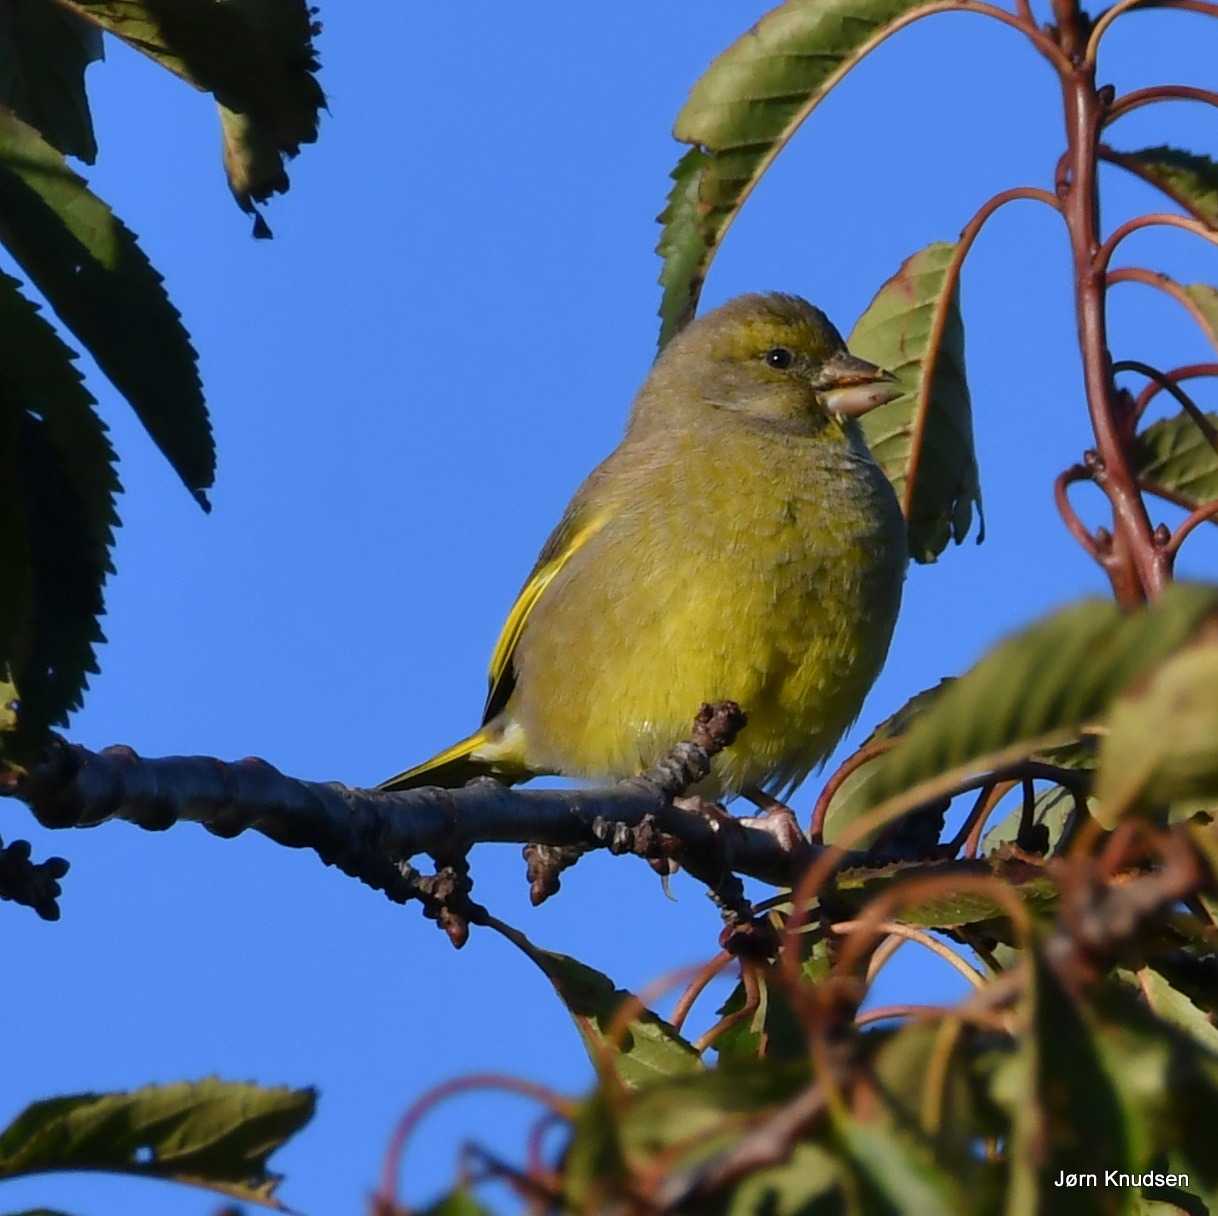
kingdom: Plantae
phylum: Tracheophyta
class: Liliopsida
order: Poales
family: Poaceae
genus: Chloris
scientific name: Chloris chloris
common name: Grønirisk
